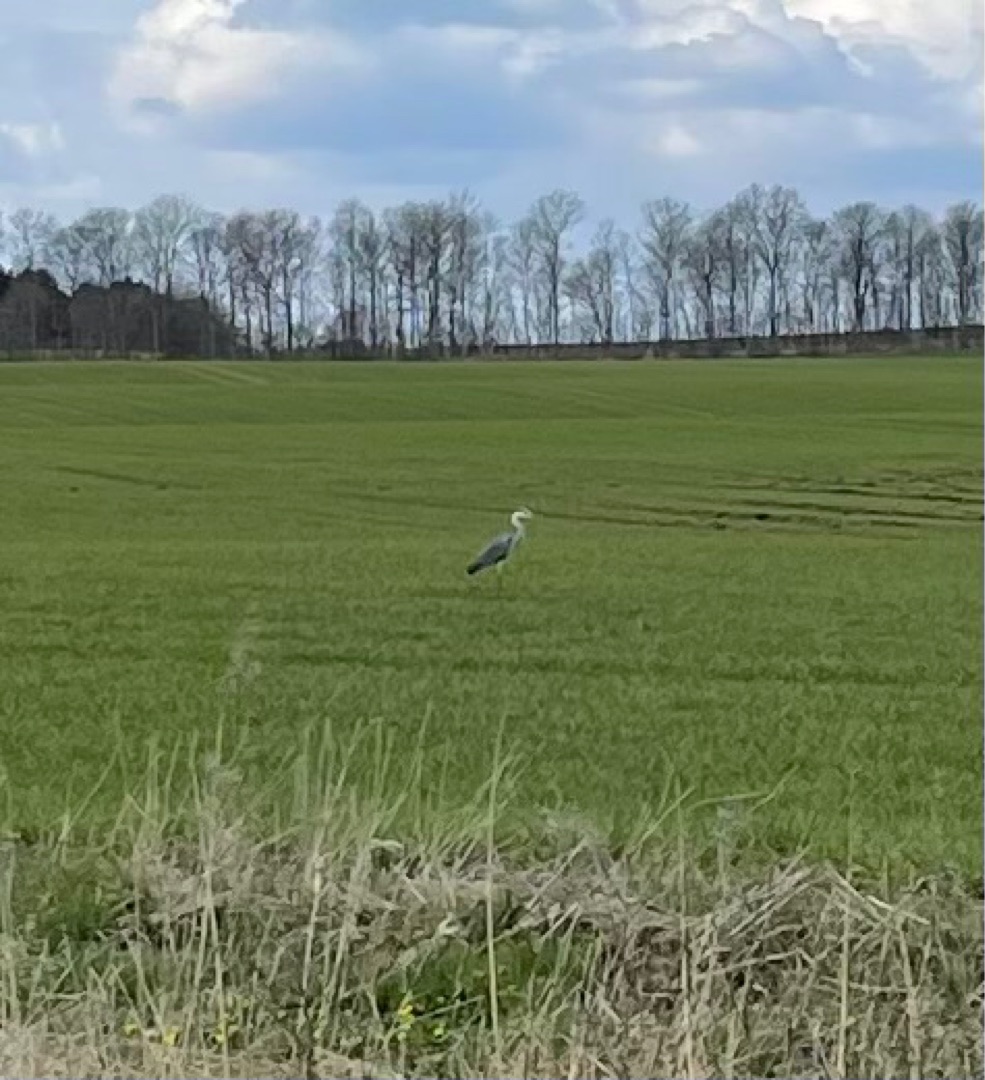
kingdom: Animalia
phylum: Chordata
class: Aves
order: Pelecaniformes
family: Ardeidae
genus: Ardea
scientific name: Ardea cinerea
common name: Fiskehejre
